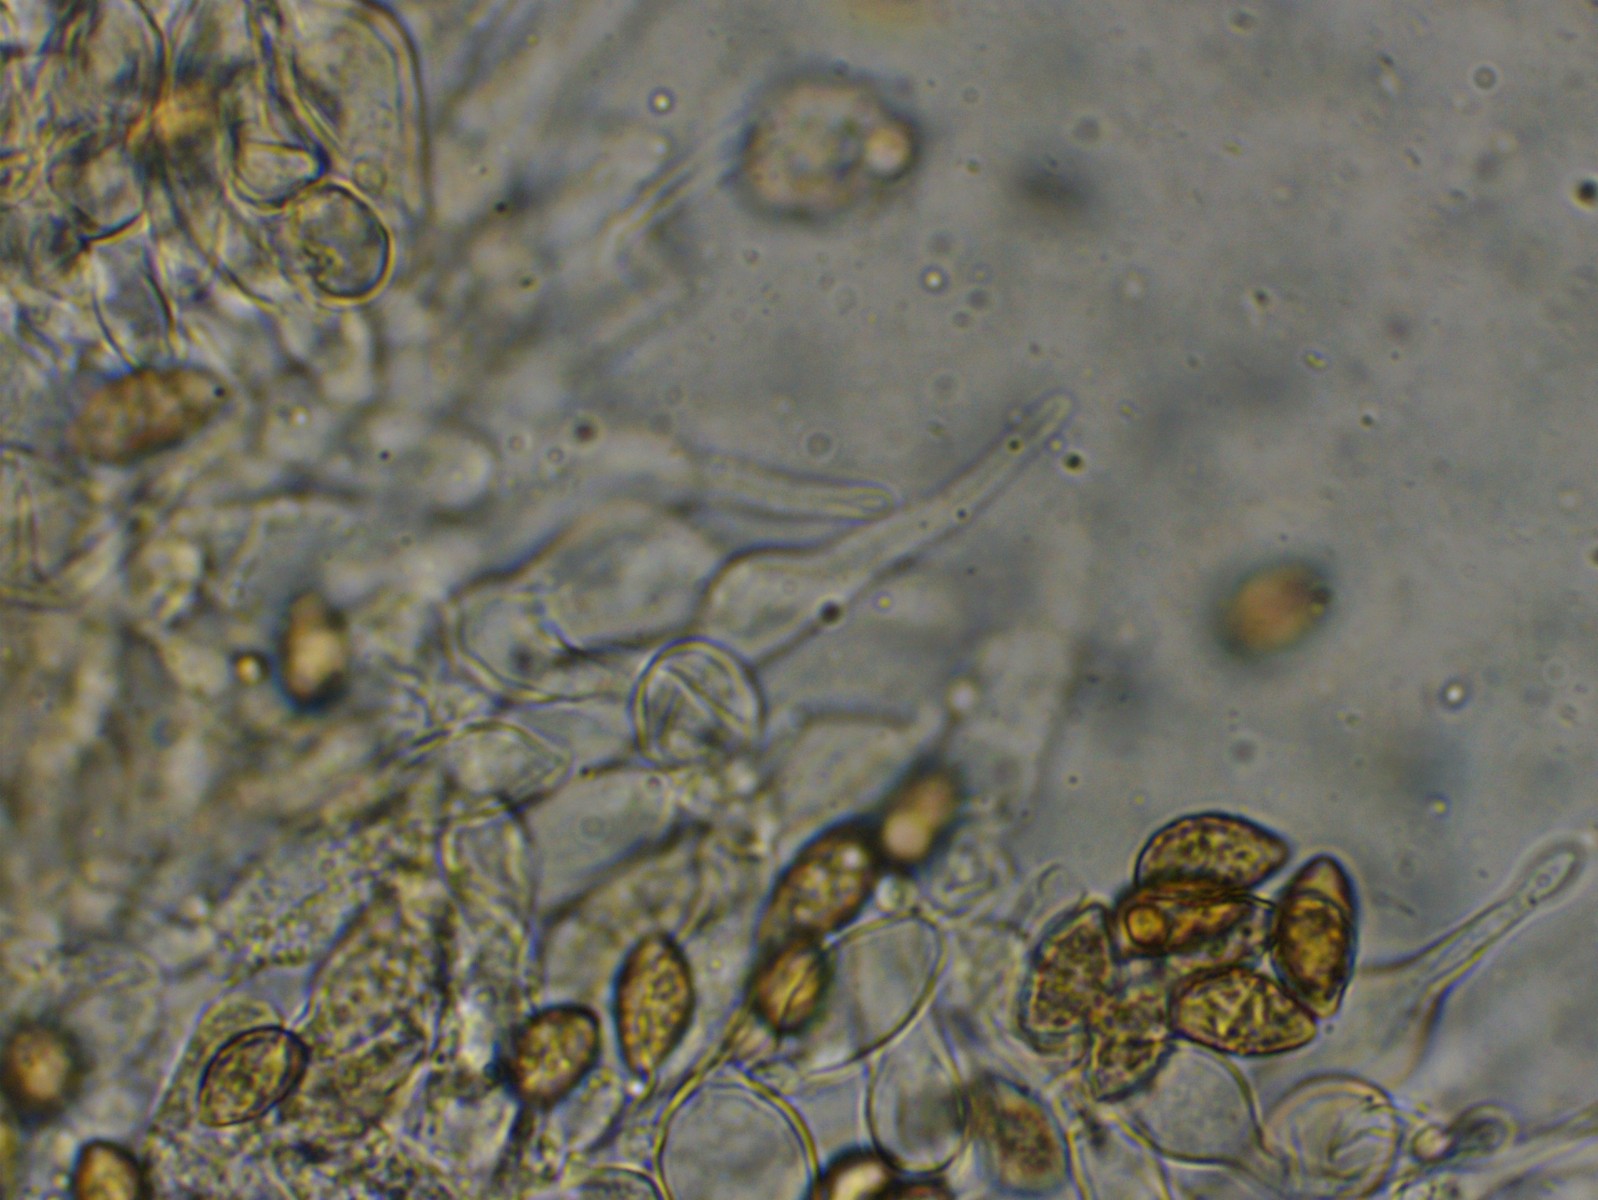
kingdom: Fungi
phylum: Basidiomycota
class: Agaricomycetes
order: Agaricales
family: Hymenogastraceae
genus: Naucoria
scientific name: Naucoria
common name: knaphat
